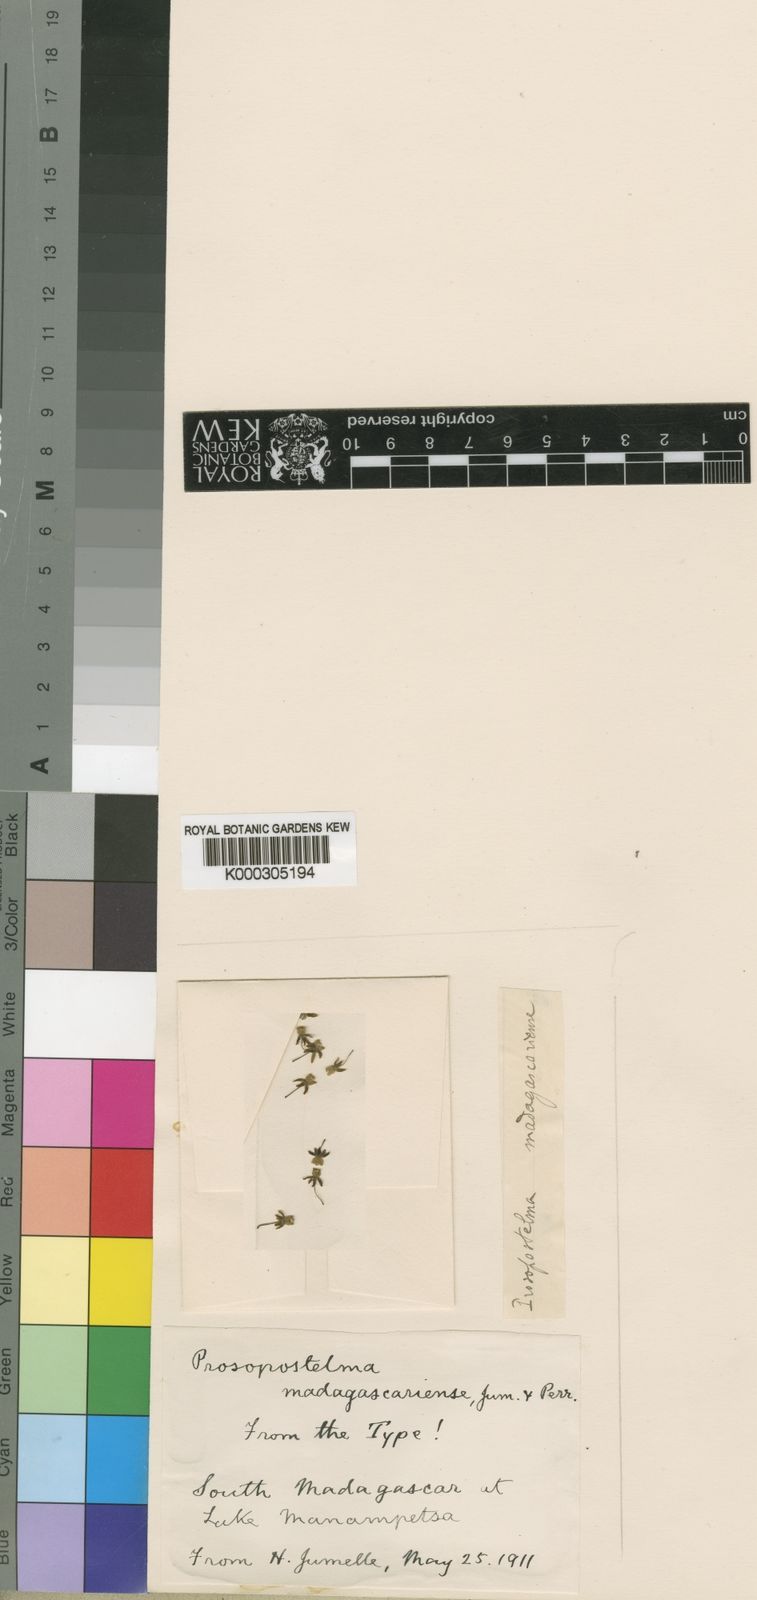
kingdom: Plantae
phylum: Tracheophyta
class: Magnoliopsida
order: Gentianales
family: Apocynaceae
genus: Cynanchum
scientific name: Cynanchum toliari
